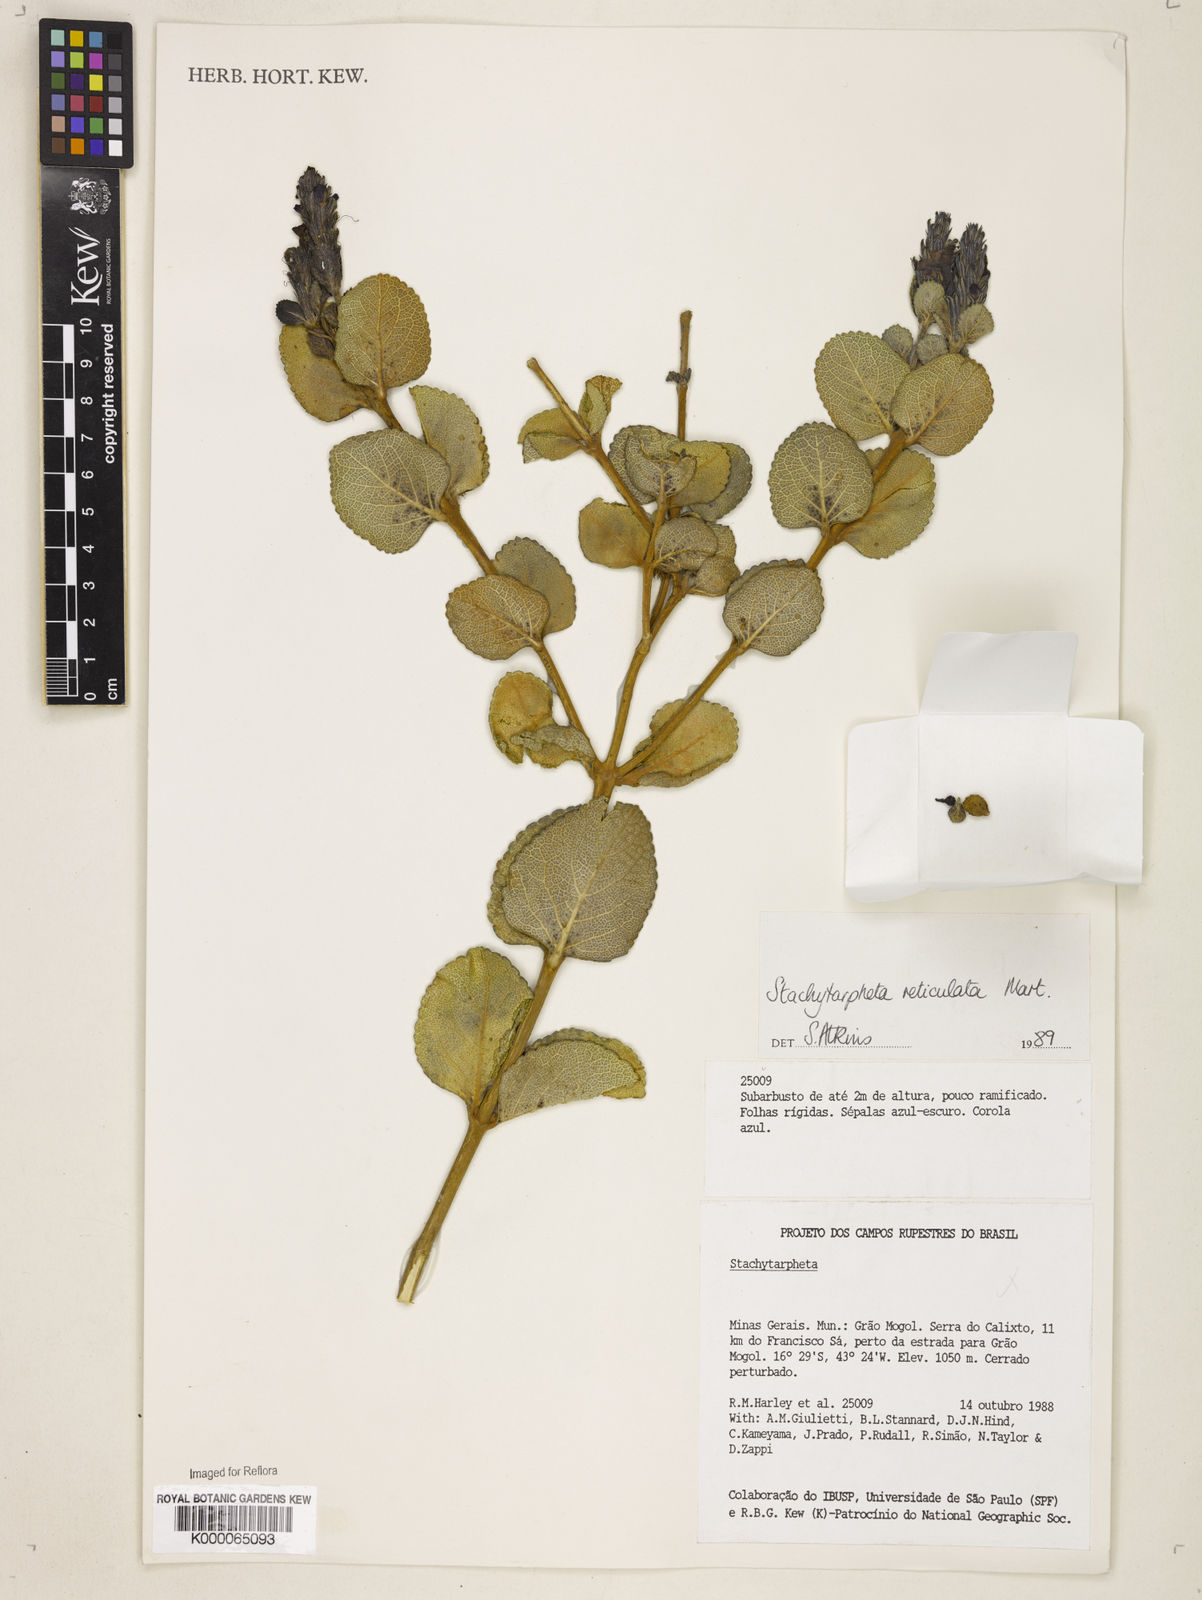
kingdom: Plantae
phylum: Tracheophyta
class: Magnoliopsida
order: Lamiales
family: Verbenaceae
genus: Stachytarpheta
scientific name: Stachytarpheta
